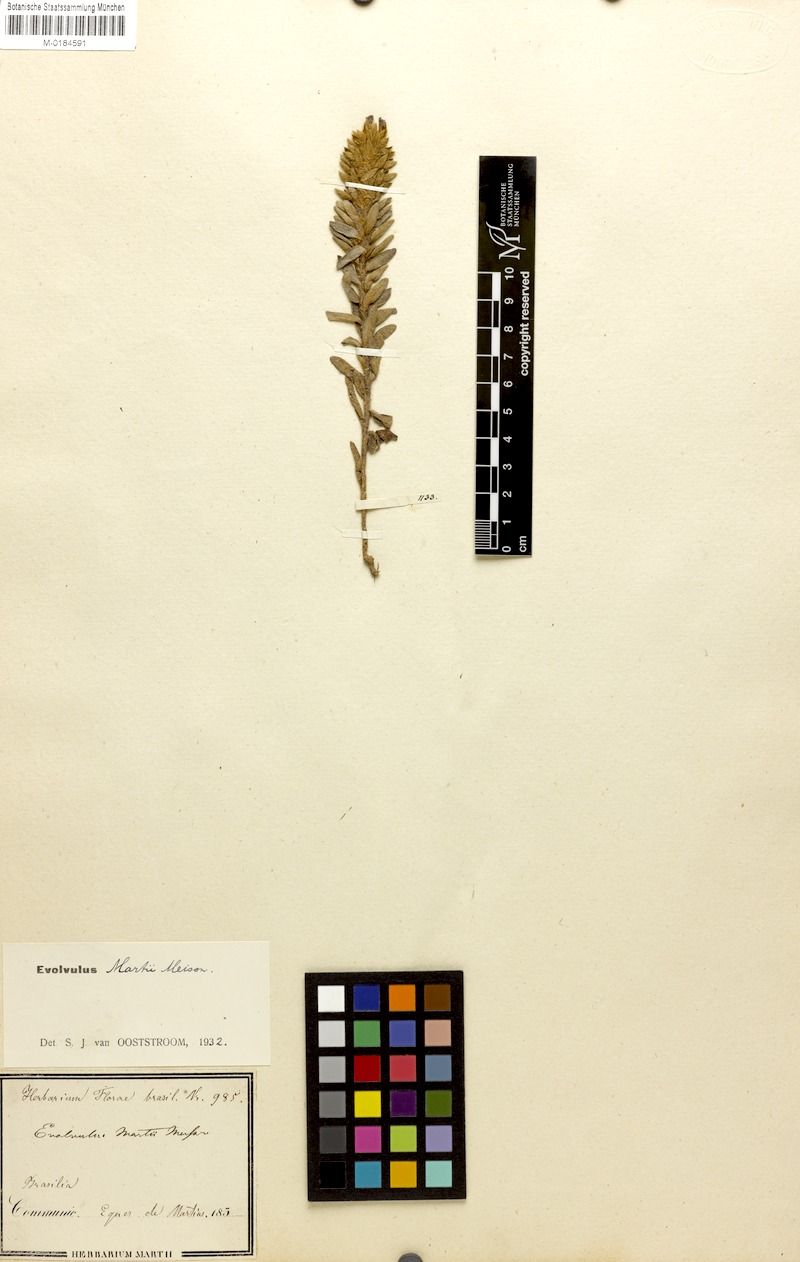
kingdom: Plantae
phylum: Tracheophyta
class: Magnoliopsida
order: Solanales
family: Convolvulaceae
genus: Evolvulus
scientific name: Evolvulus
